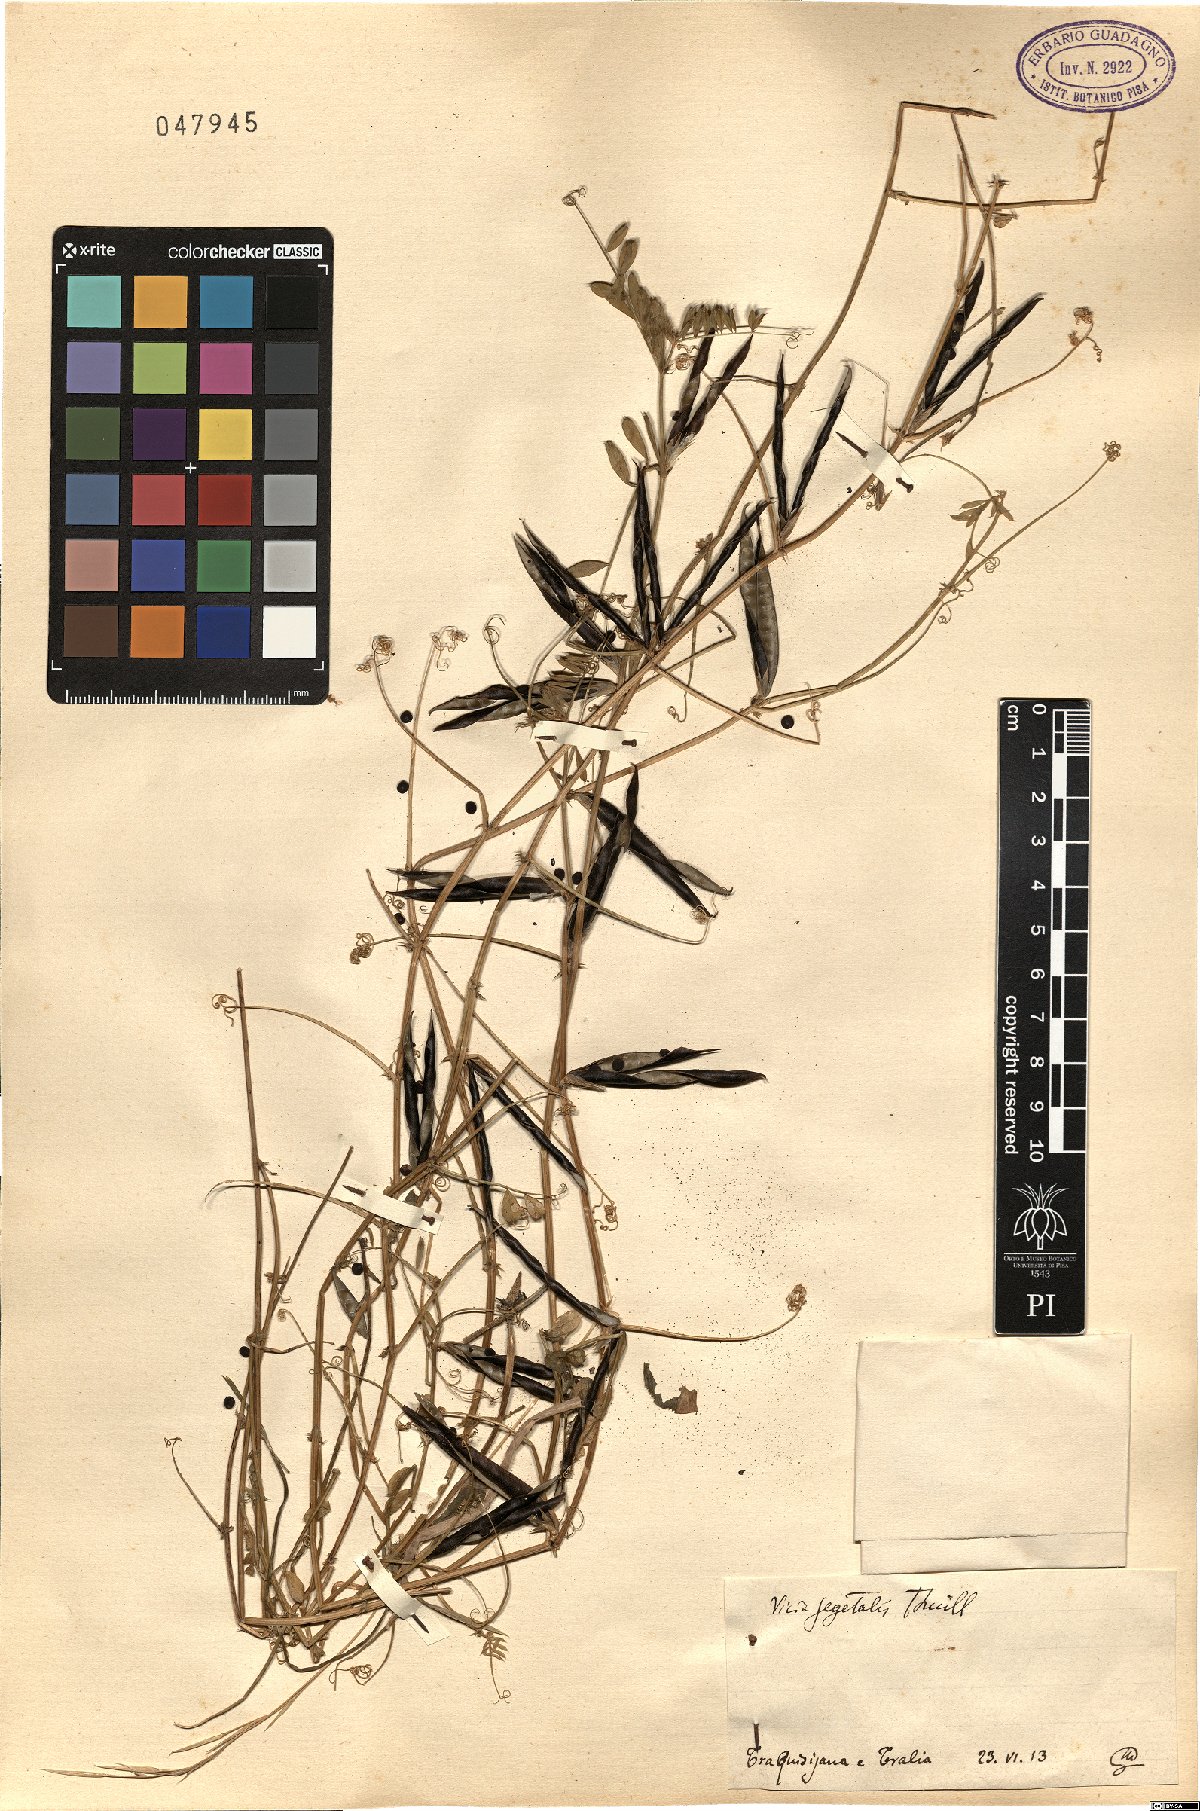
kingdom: Plantae
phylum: Tracheophyta
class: Magnoliopsida
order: Fabales
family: Fabaceae
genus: Vicia
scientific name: Vicia sativa
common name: Garden vetch
